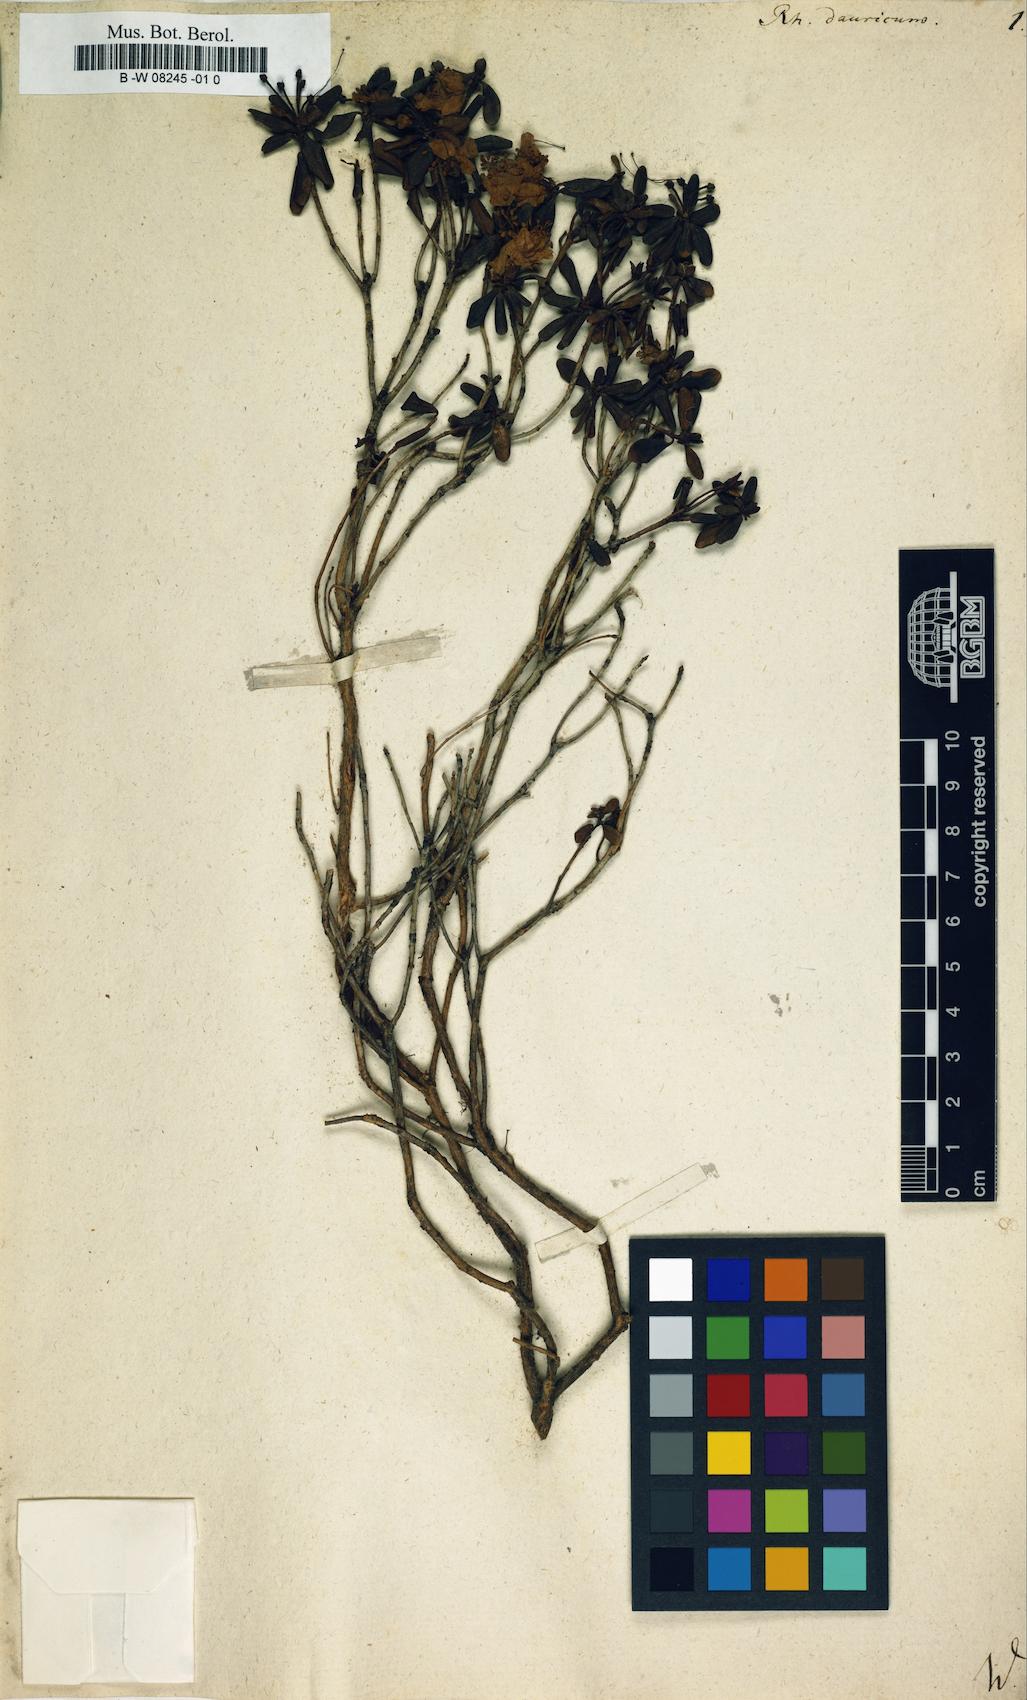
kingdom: Plantae
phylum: Tracheophyta
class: Magnoliopsida
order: Ericales
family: Ericaceae
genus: Rhododendron
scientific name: Rhododendron dauricum
